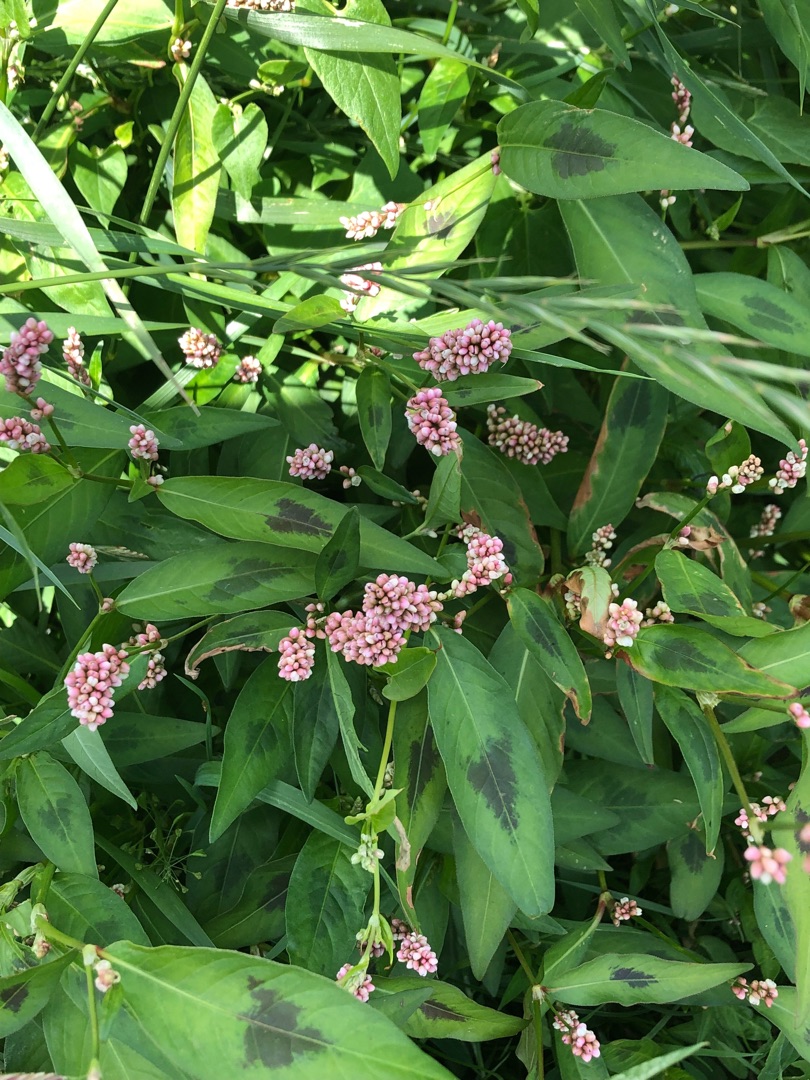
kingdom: Plantae
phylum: Tracheophyta
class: Magnoliopsida
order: Caryophyllales
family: Polygonaceae
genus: Persicaria
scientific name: Persicaria maculosa
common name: Fersken-pileurt
